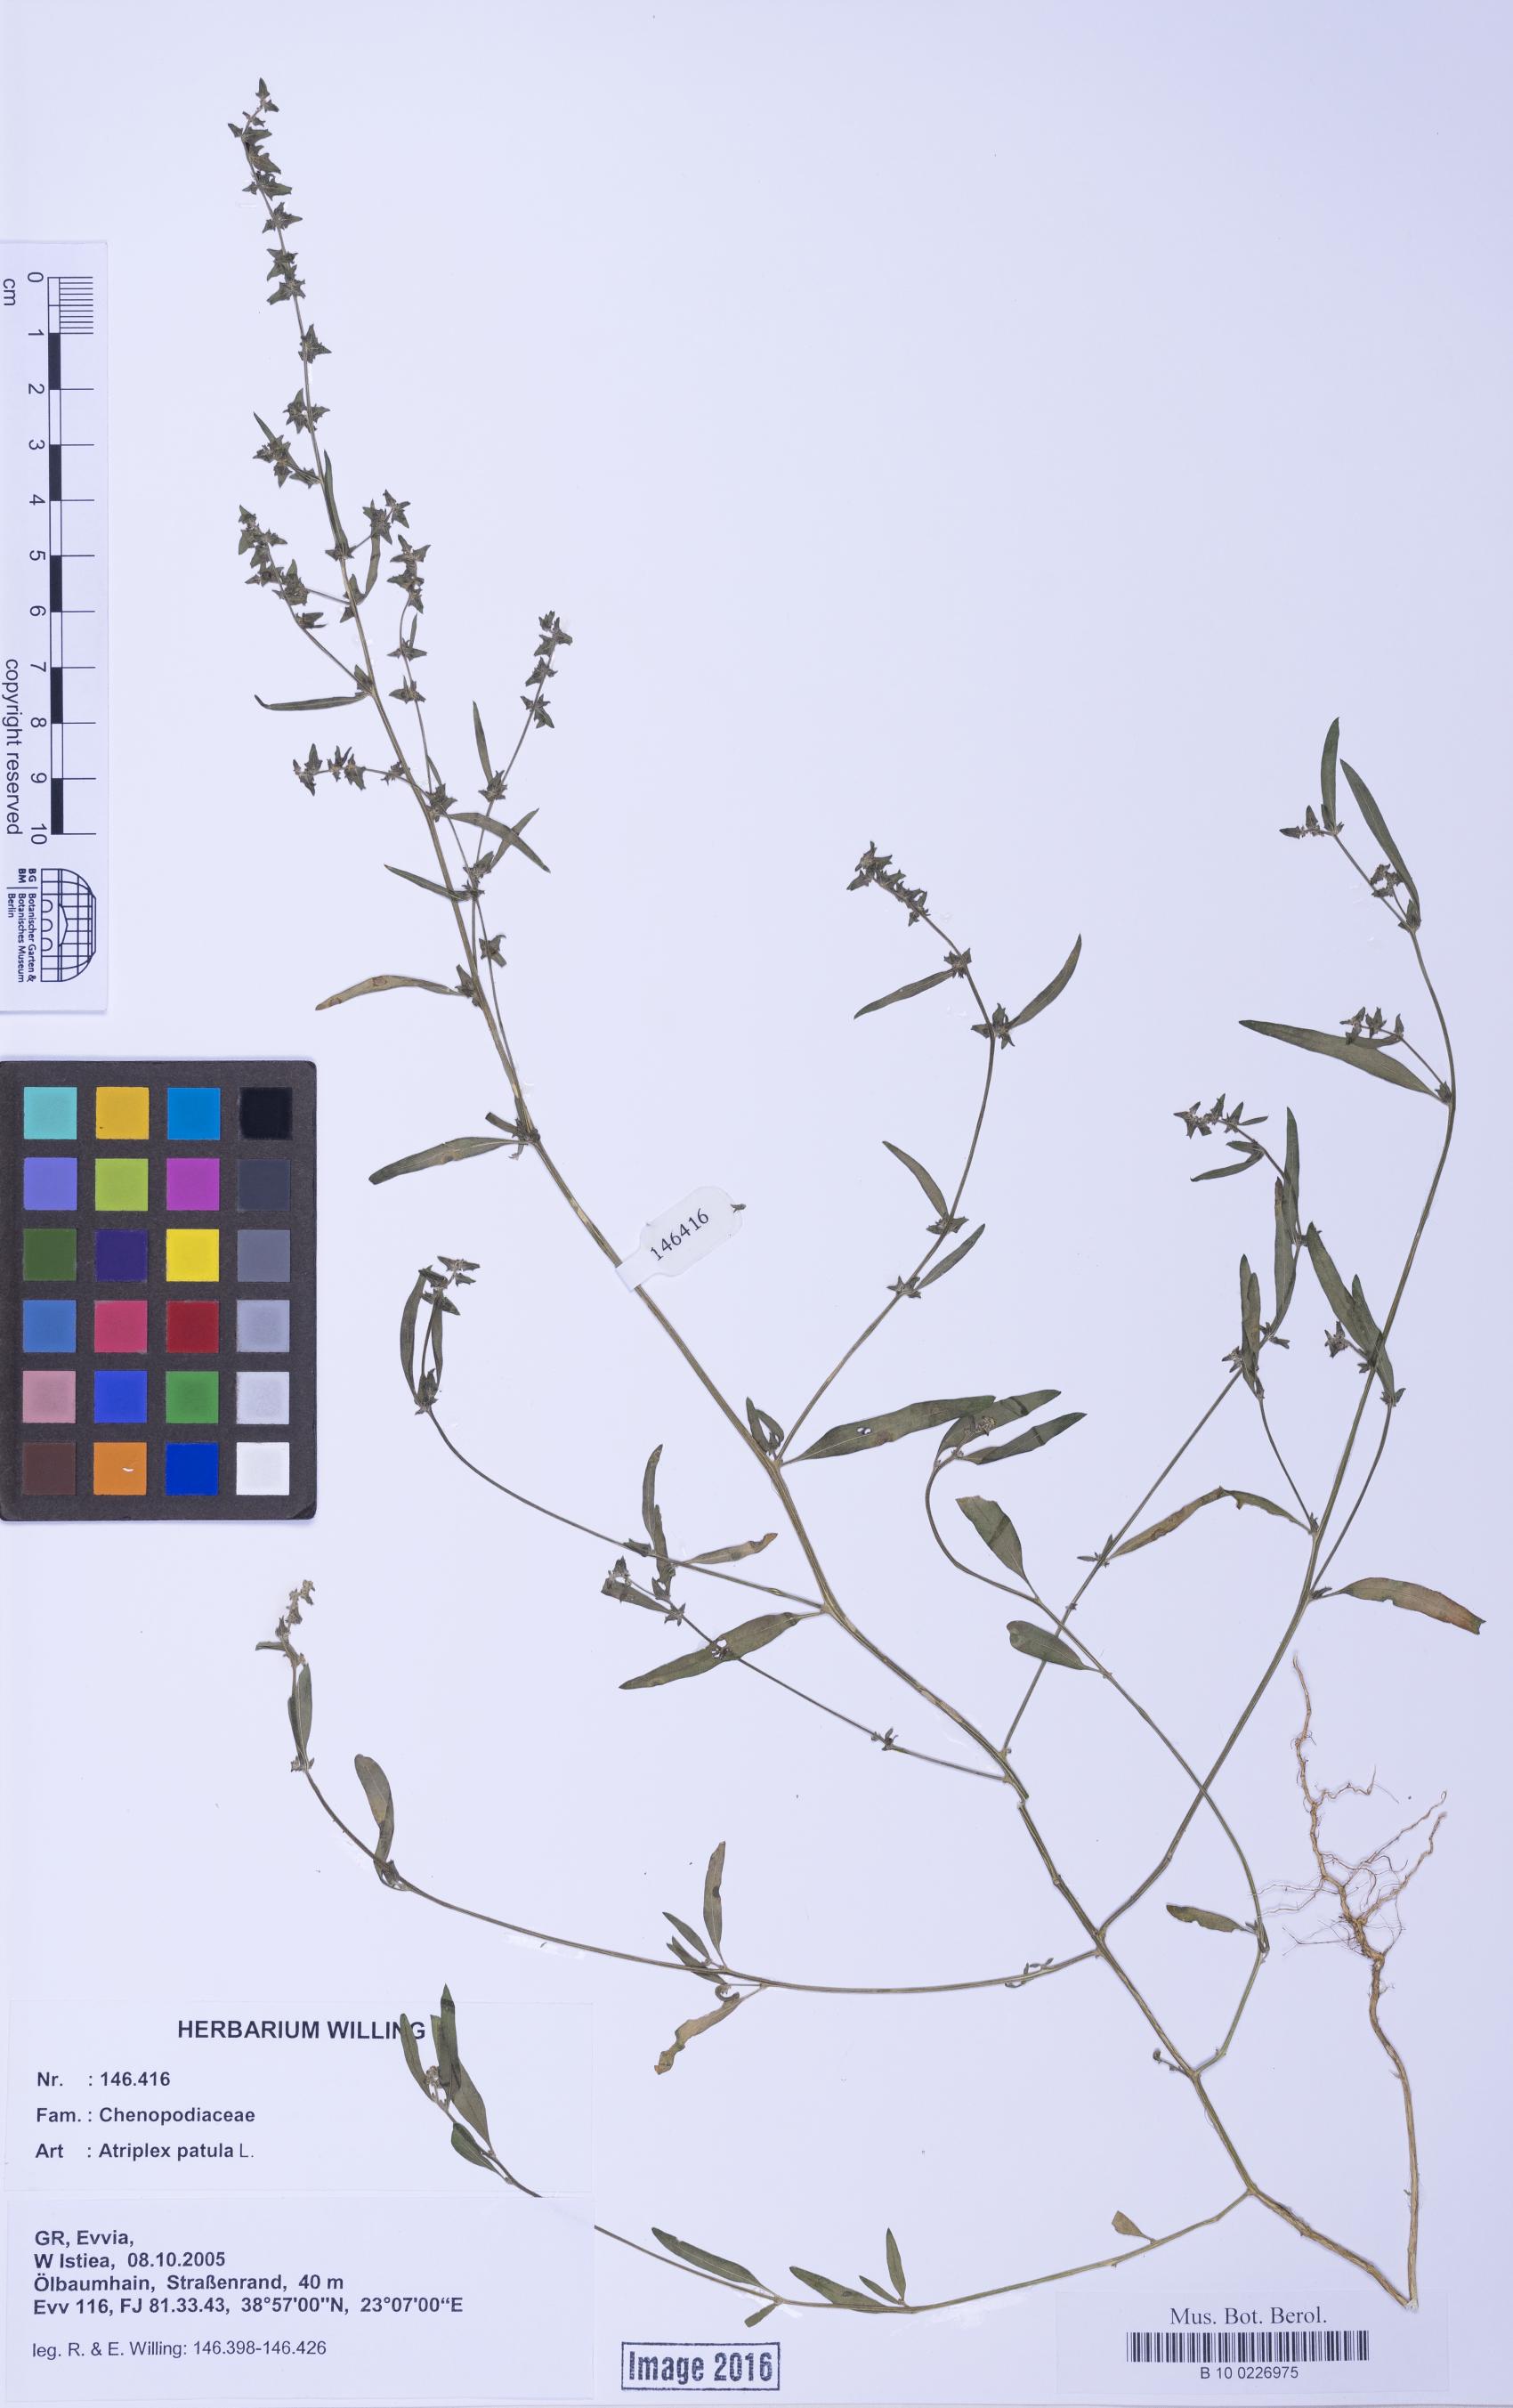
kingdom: Plantae
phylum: Tracheophyta
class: Magnoliopsida
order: Caryophyllales
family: Amaranthaceae
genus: Atriplex
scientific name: Atriplex patula
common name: Common orache
